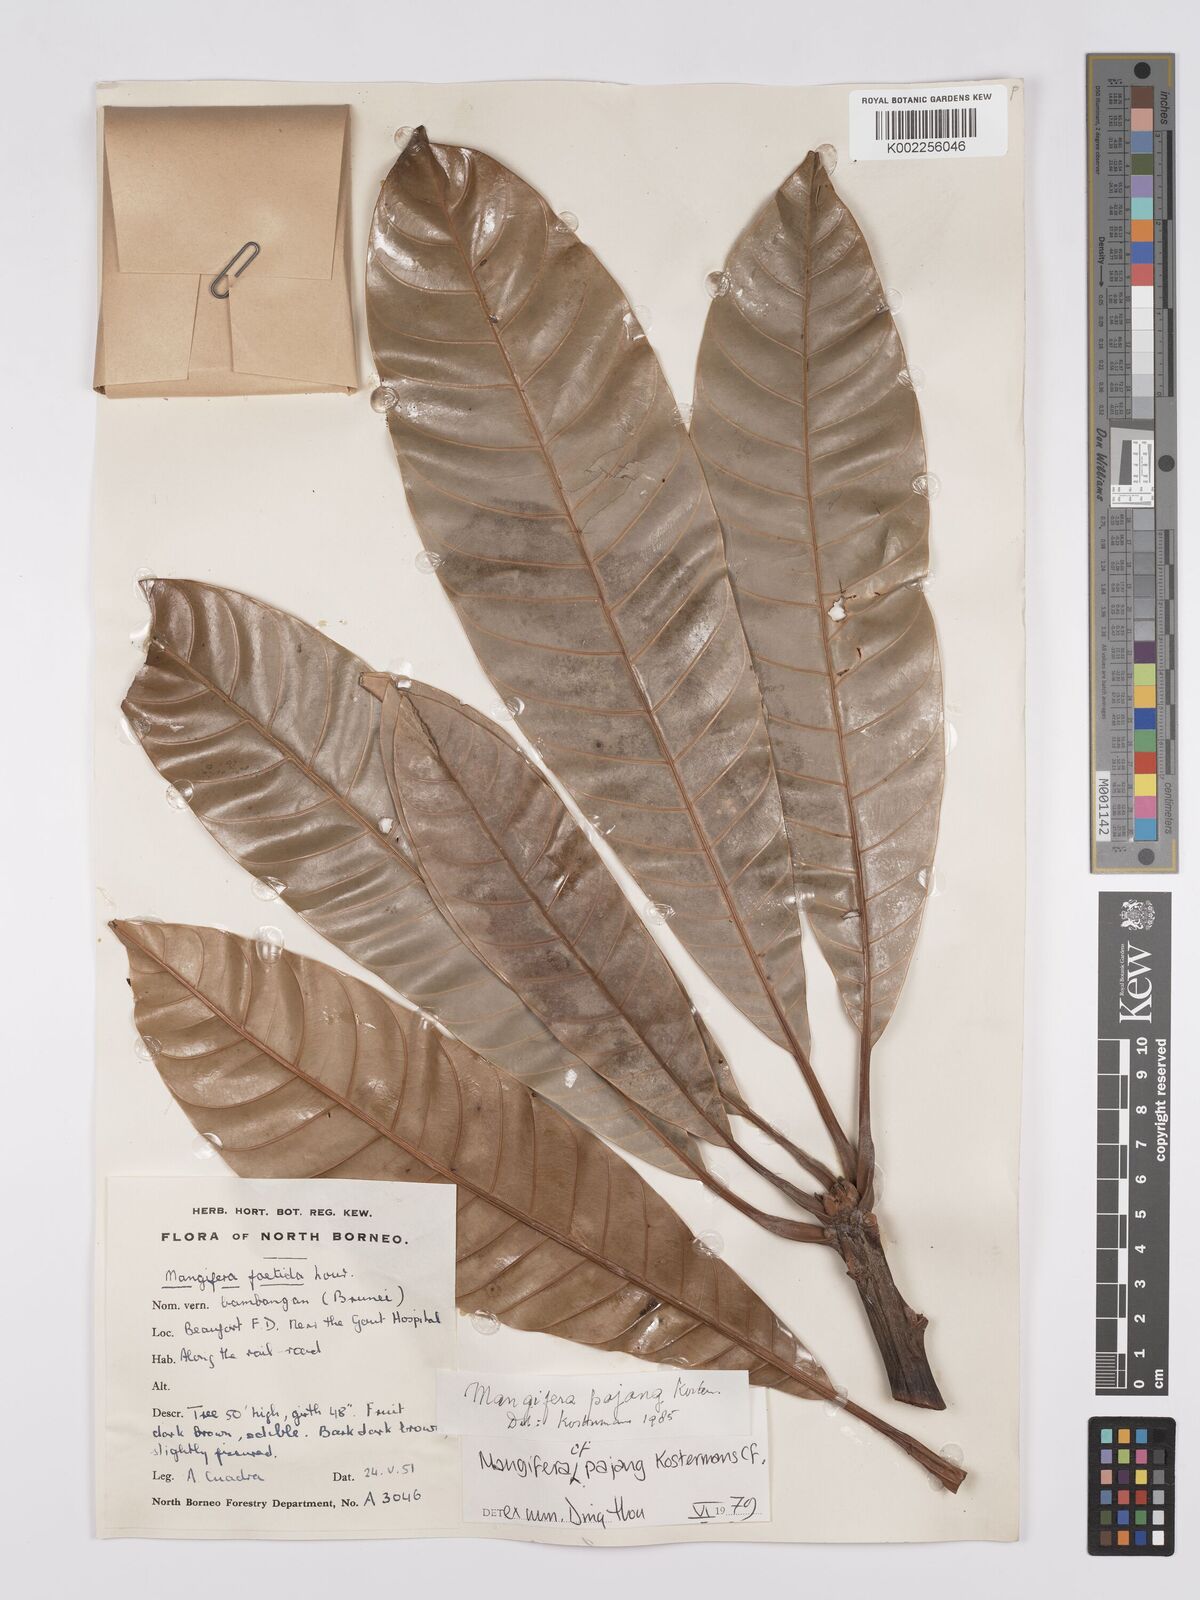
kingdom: Plantae
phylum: Tracheophyta
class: Magnoliopsida
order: Sapindales
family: Anacardiaceae
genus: Mangifera
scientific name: Mangifera pajang
